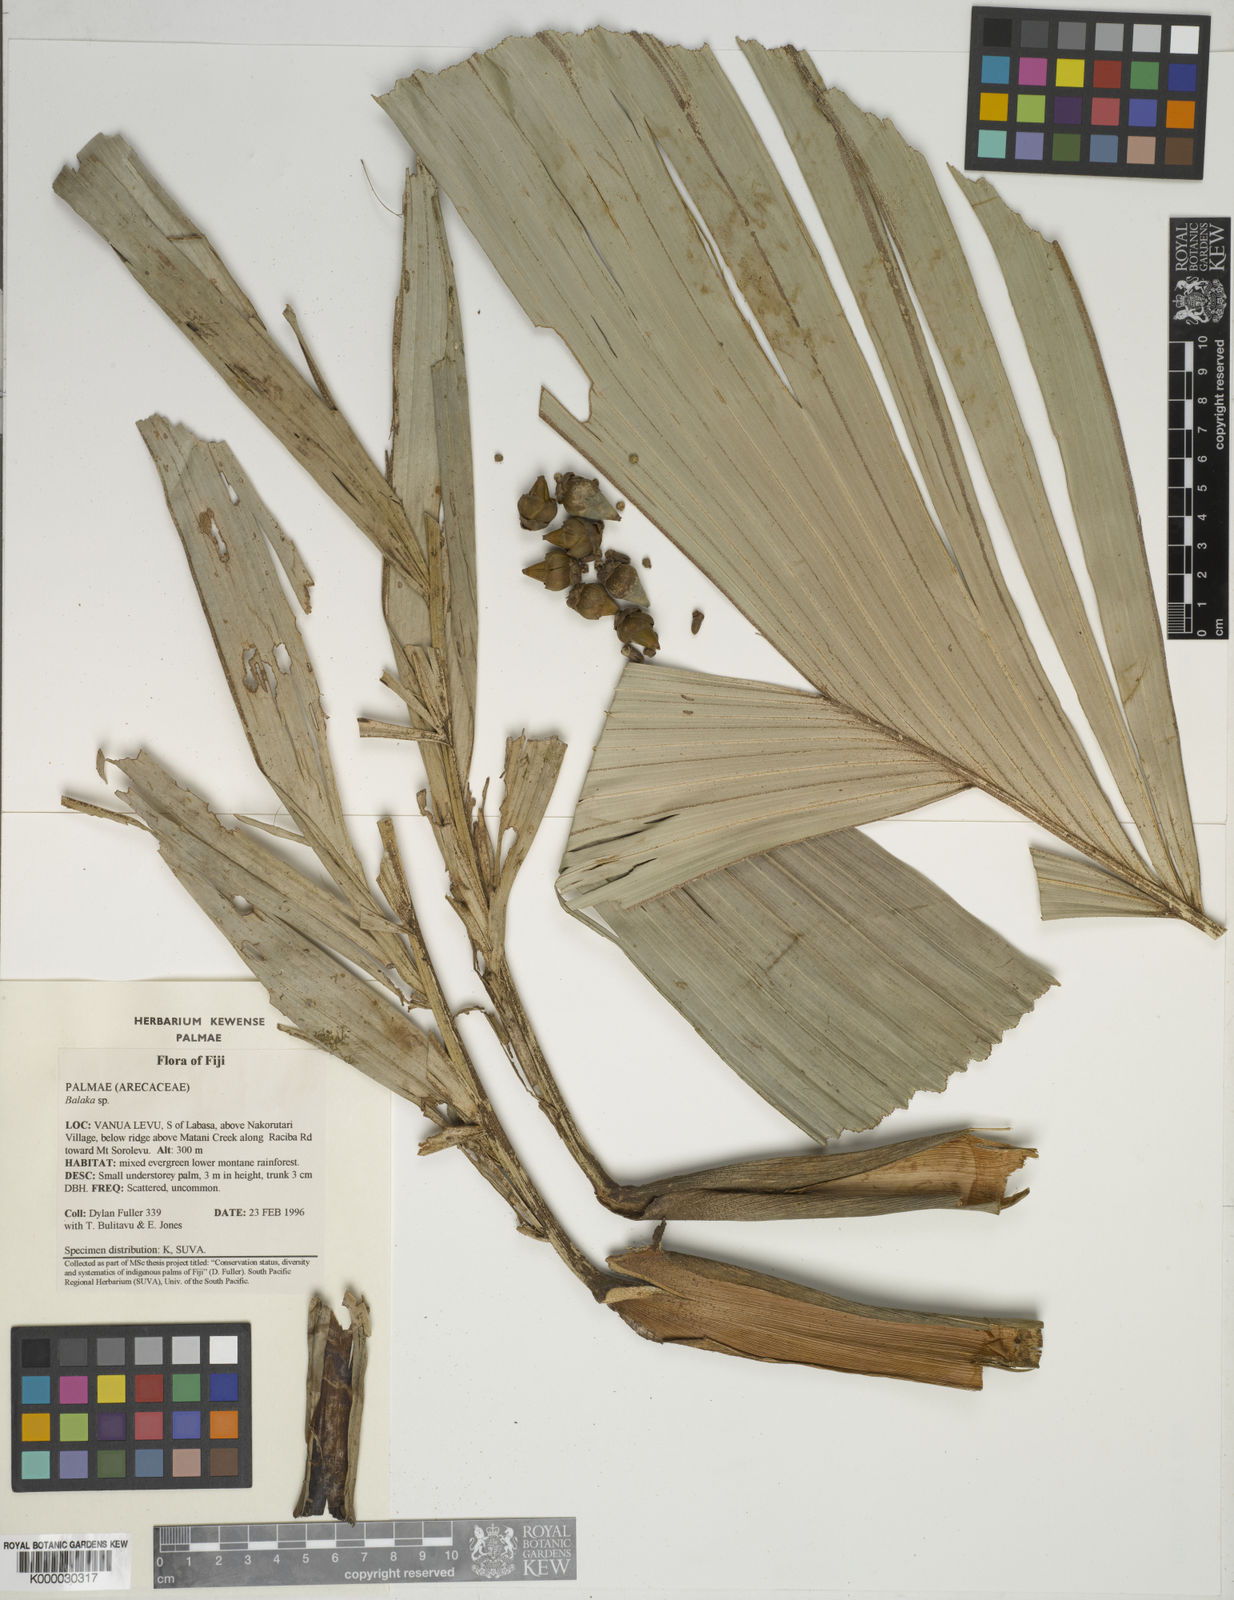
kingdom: Plantae
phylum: Tracheophyta
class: Liliopsida
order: Arecales
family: Arecaceae
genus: Balaka
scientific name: Balaka
